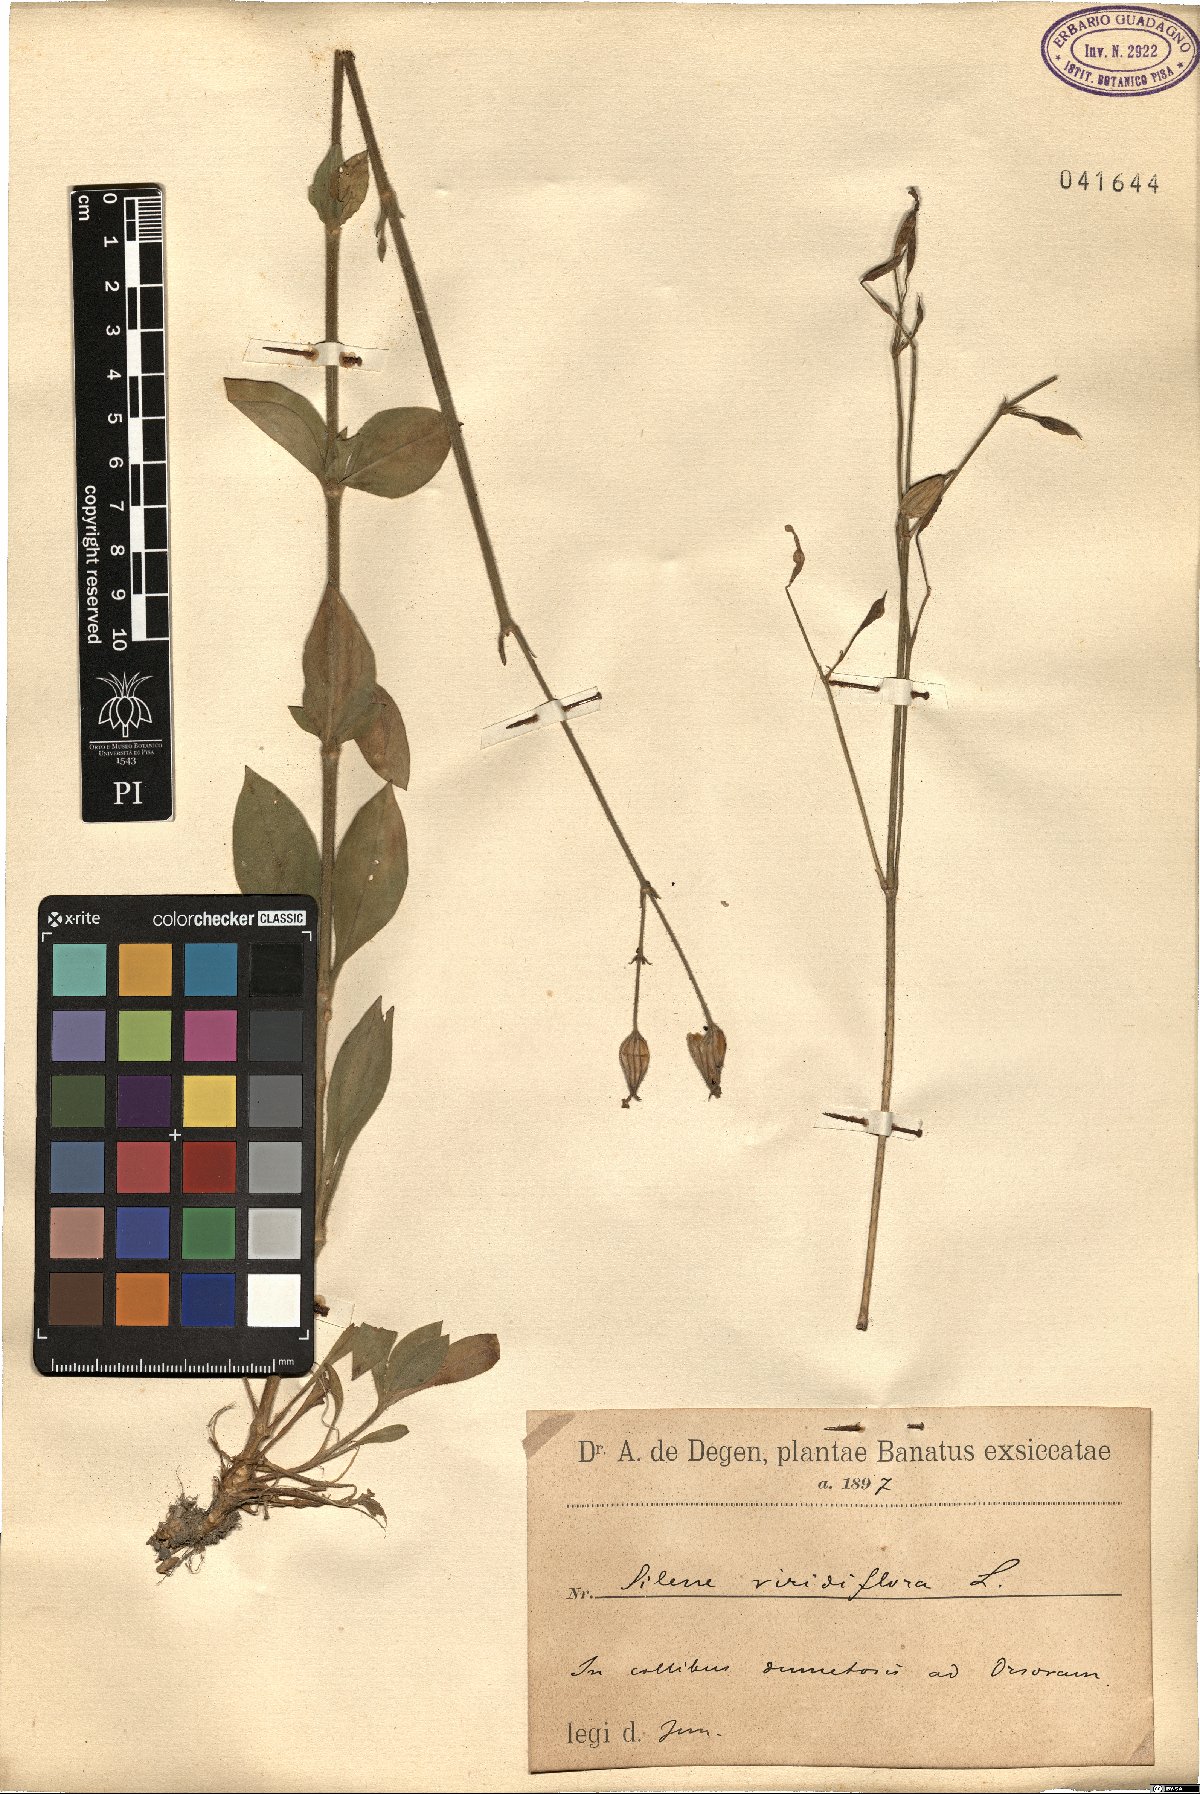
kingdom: Plantae
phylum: Tracheophyta
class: Magnoliopsida
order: Caryophyllales
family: Caryophyllaceae
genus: Silene
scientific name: Silene viridiflora
